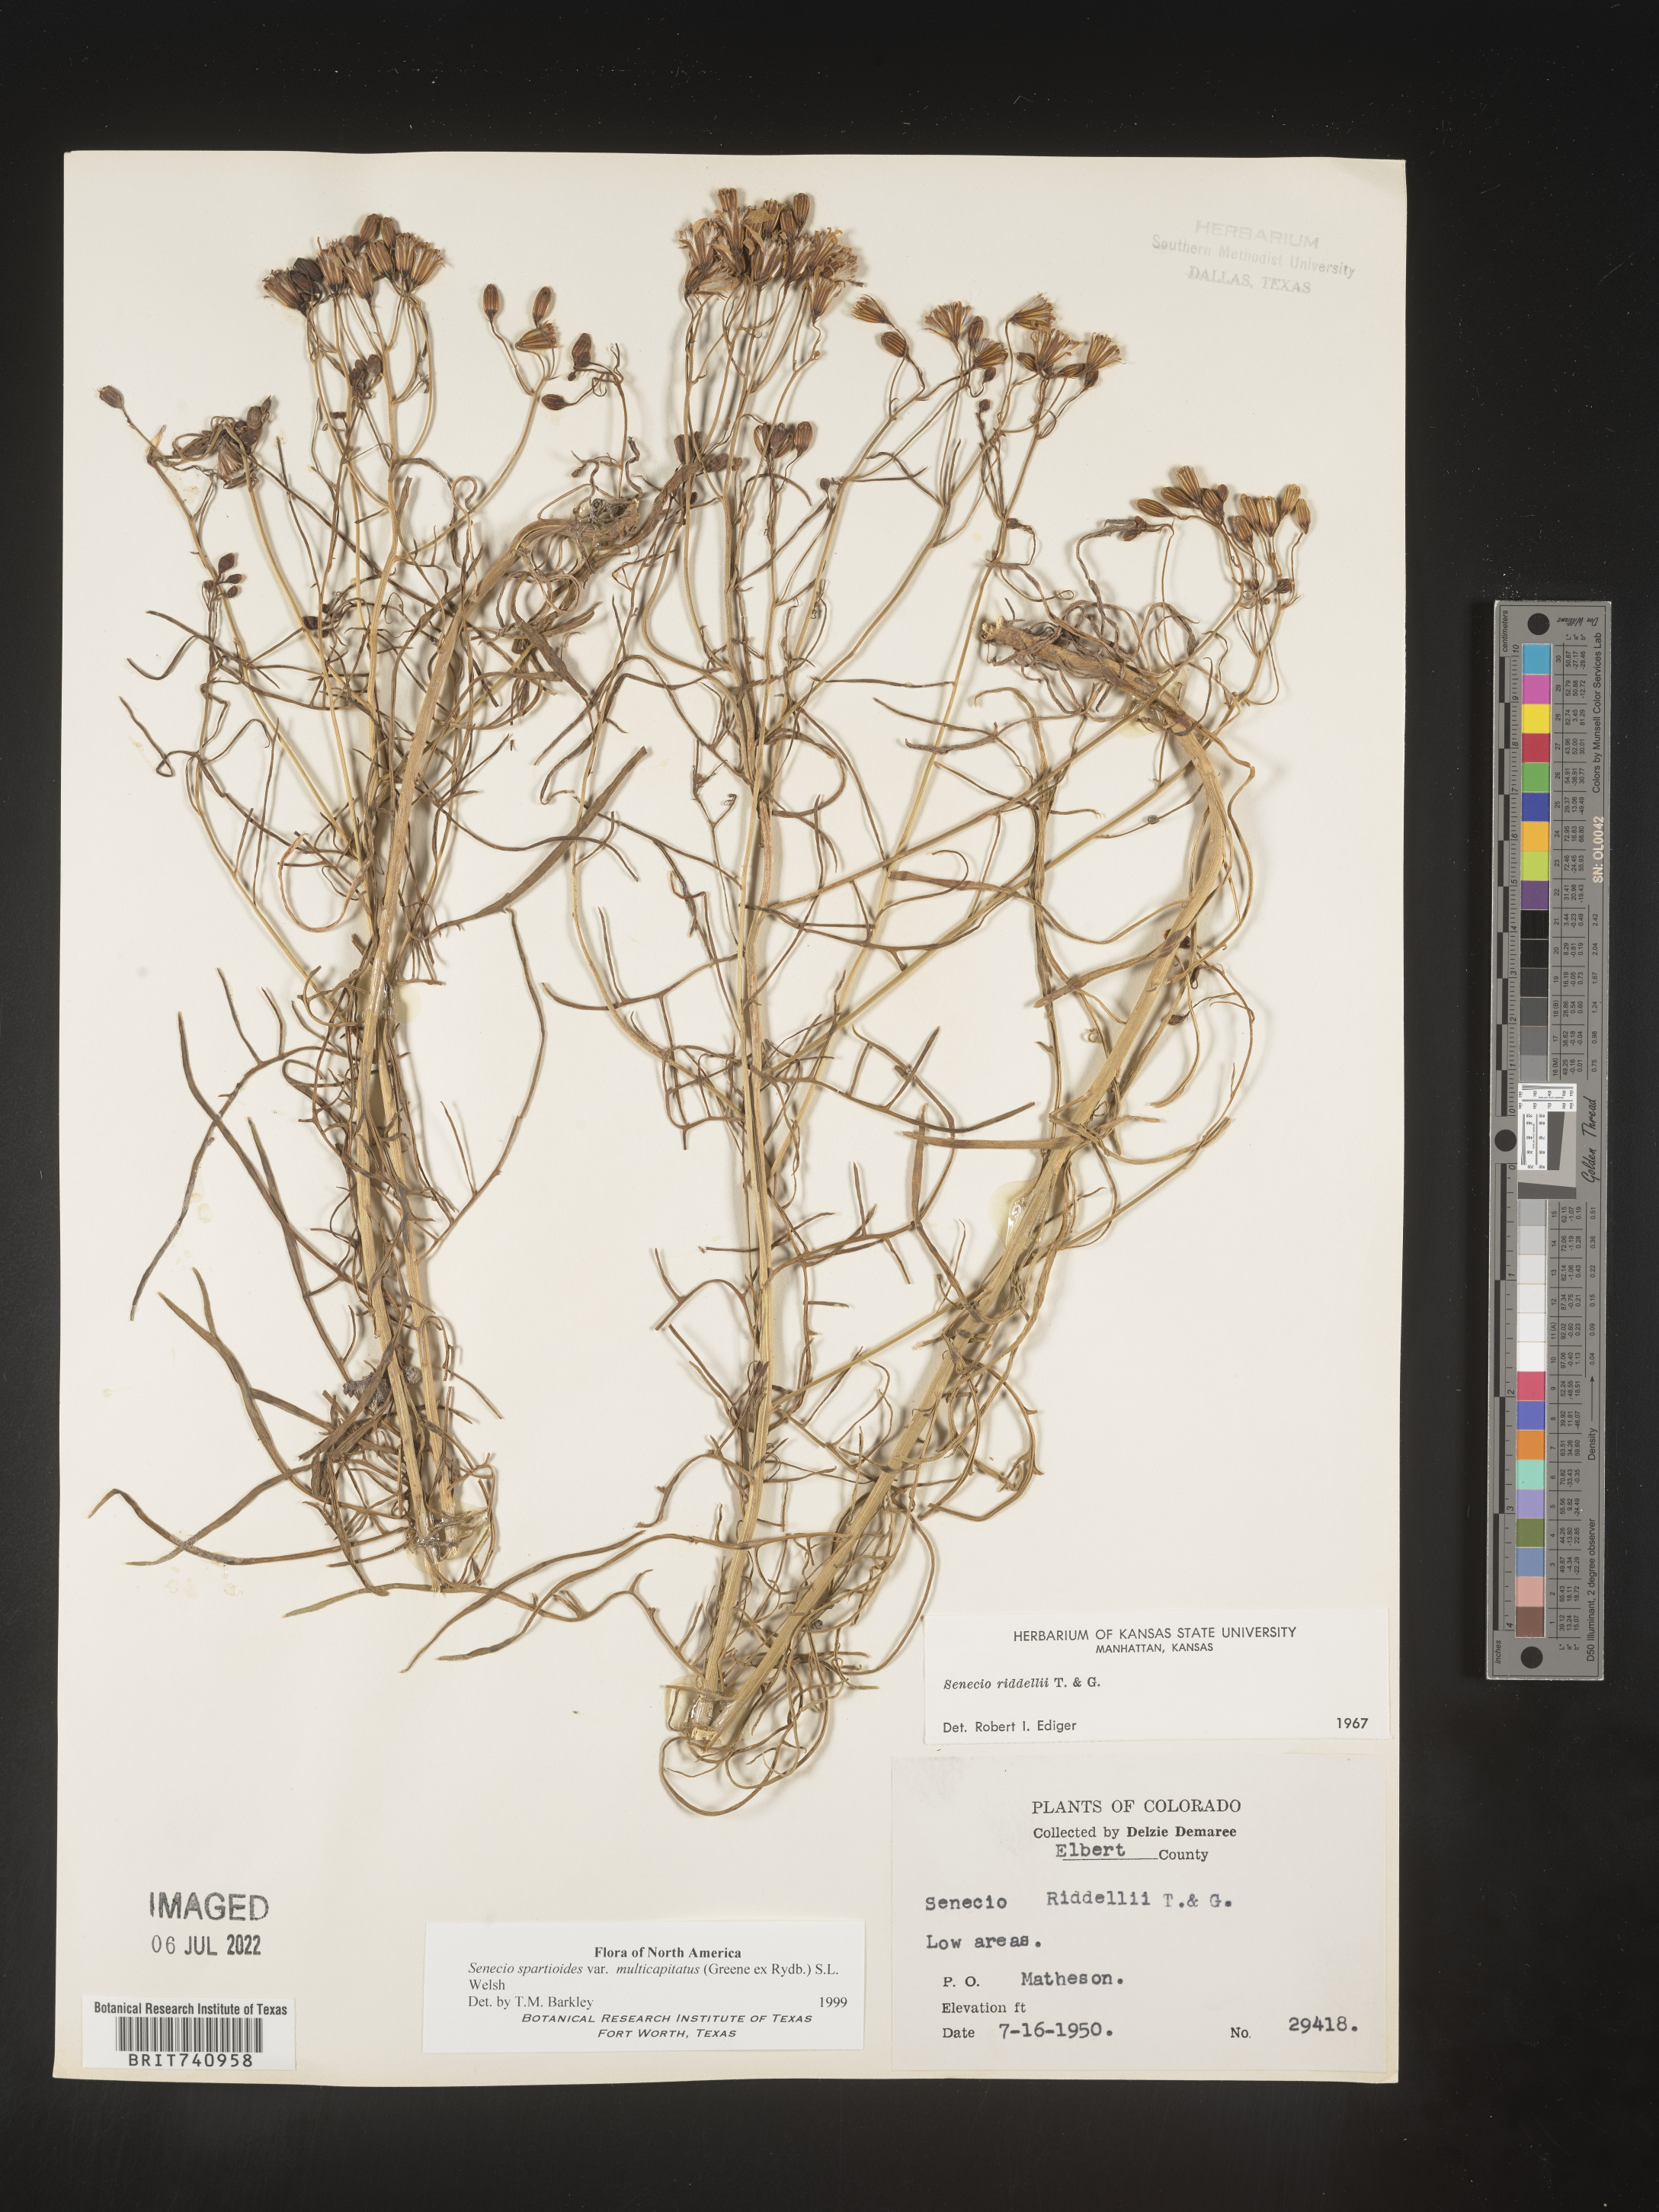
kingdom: Plantae
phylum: Tracheophyta
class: Magnoliopsida
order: Asterales
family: Asteraceae
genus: Senecio
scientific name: Senecio spartioides
